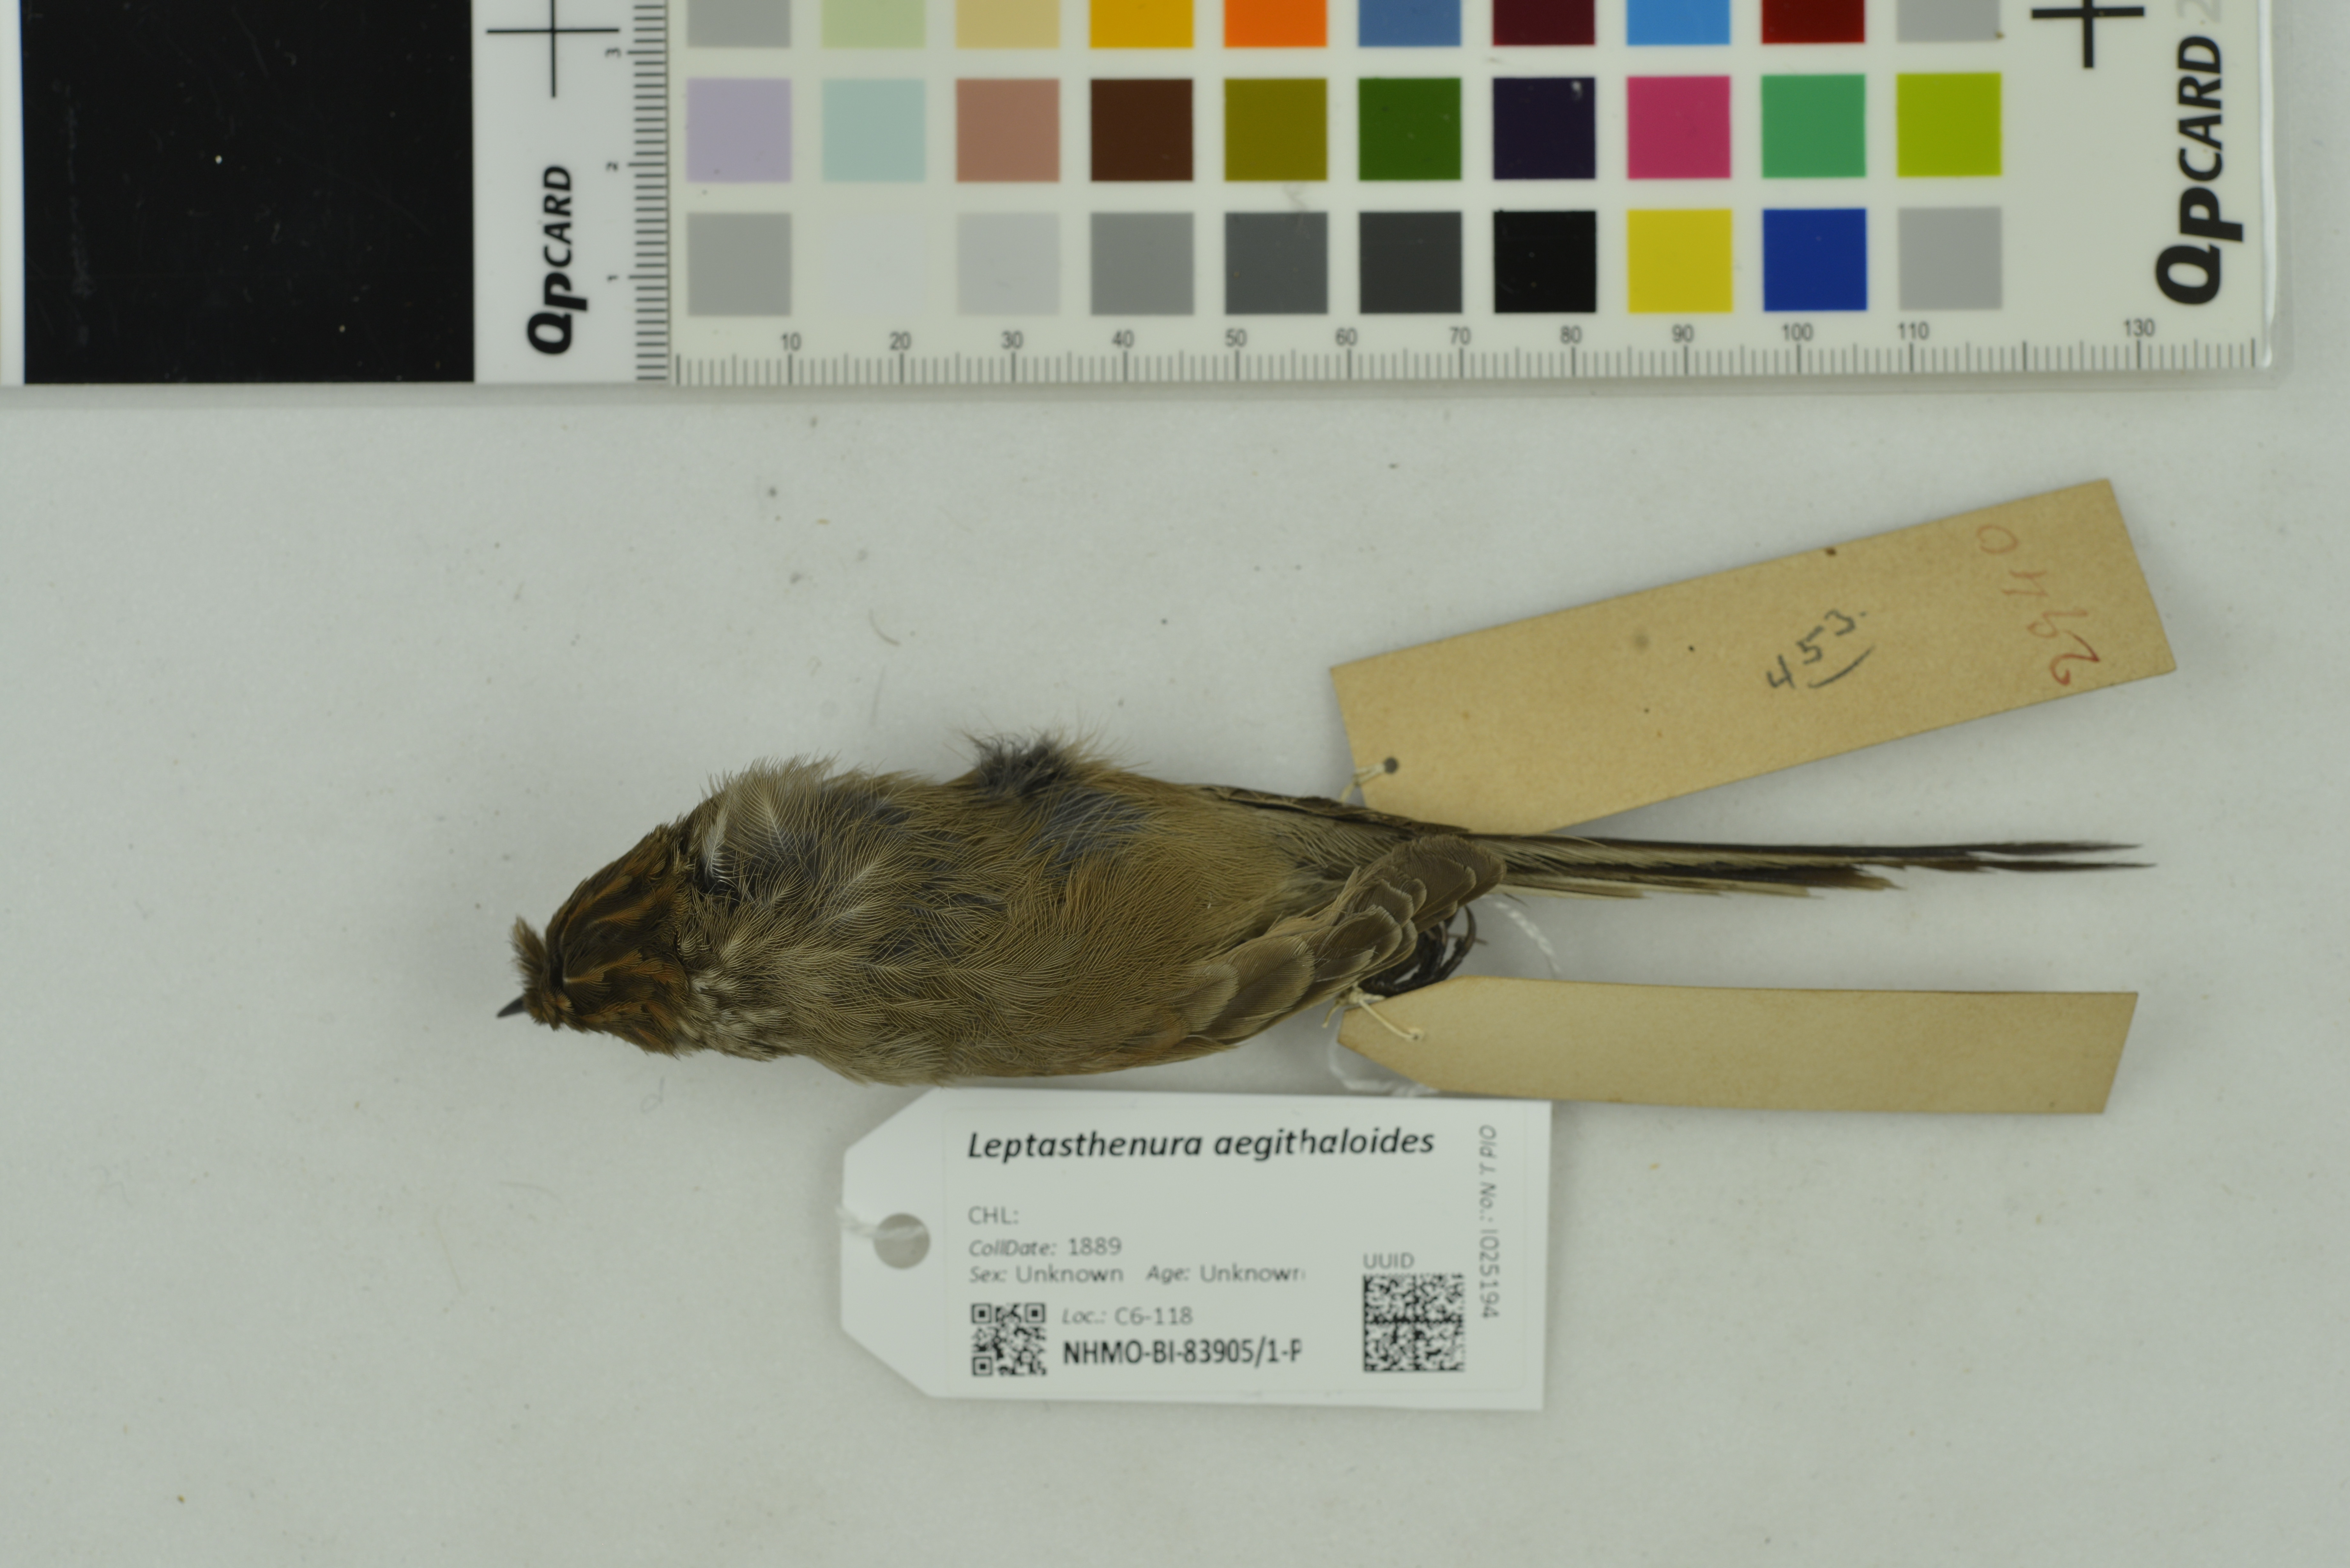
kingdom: Animalia
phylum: Chordata
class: Aves
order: Passeriformes
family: Furnariidae
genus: Leptasthenura
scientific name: Leptasthenura aegithaloides
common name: Plain-mantled tit-spinetail
